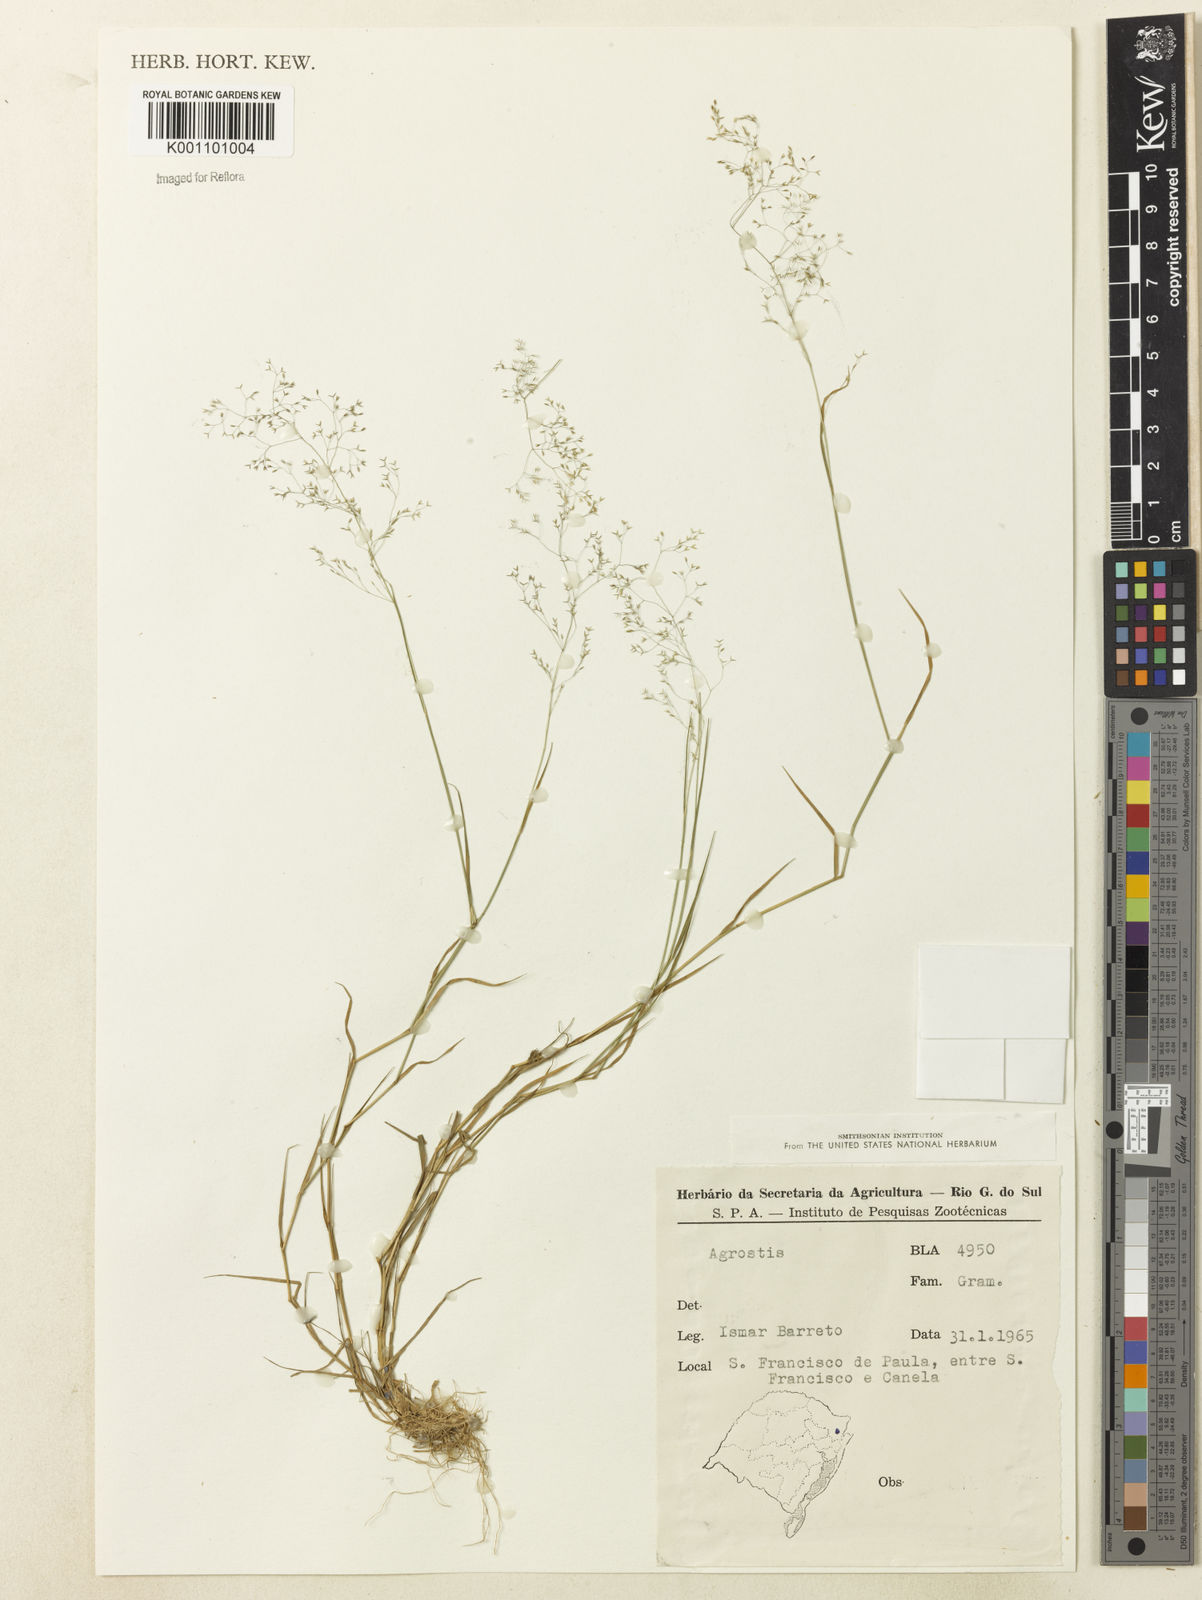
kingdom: Plantae
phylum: Tracheophyta
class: Liliopsida
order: Poales
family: Poaceae
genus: Agrostis
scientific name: Agrostis
